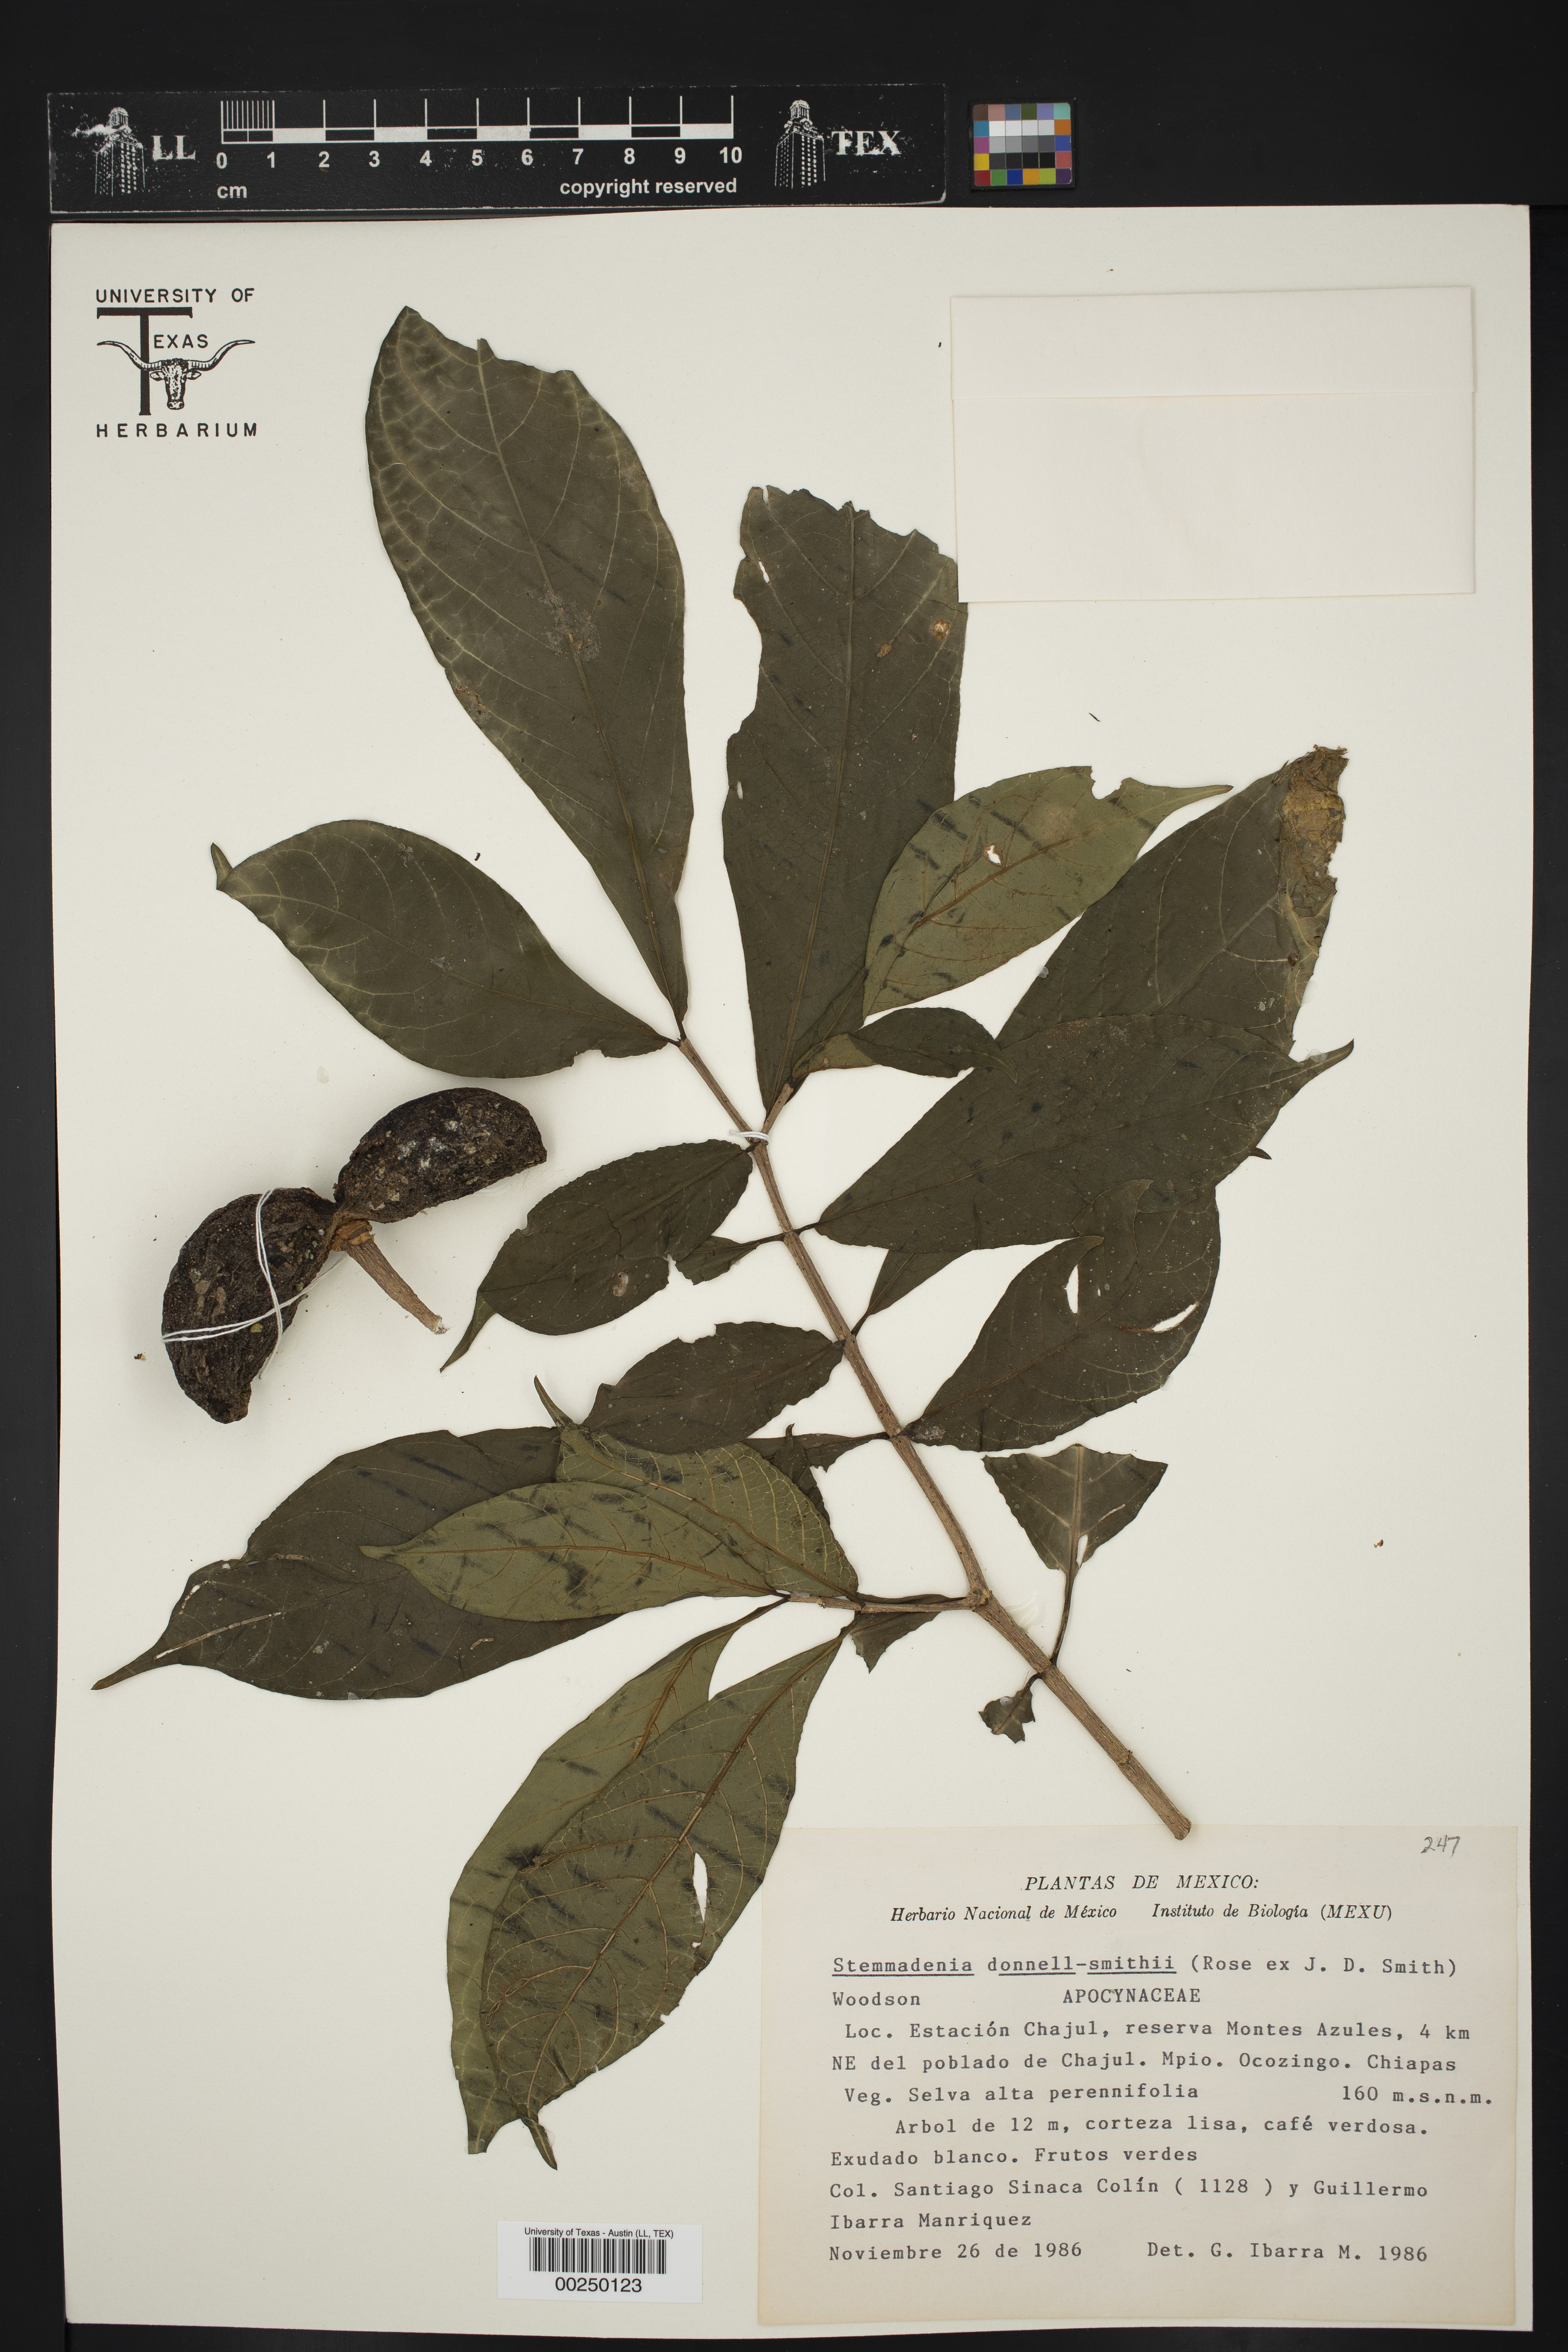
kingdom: Plantae
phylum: Tracheophyta
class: Magnoliopsida
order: Gentianales
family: Apocynaceae
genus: Tabernaemontana
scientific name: Tabernaemontana donnell-smithii
